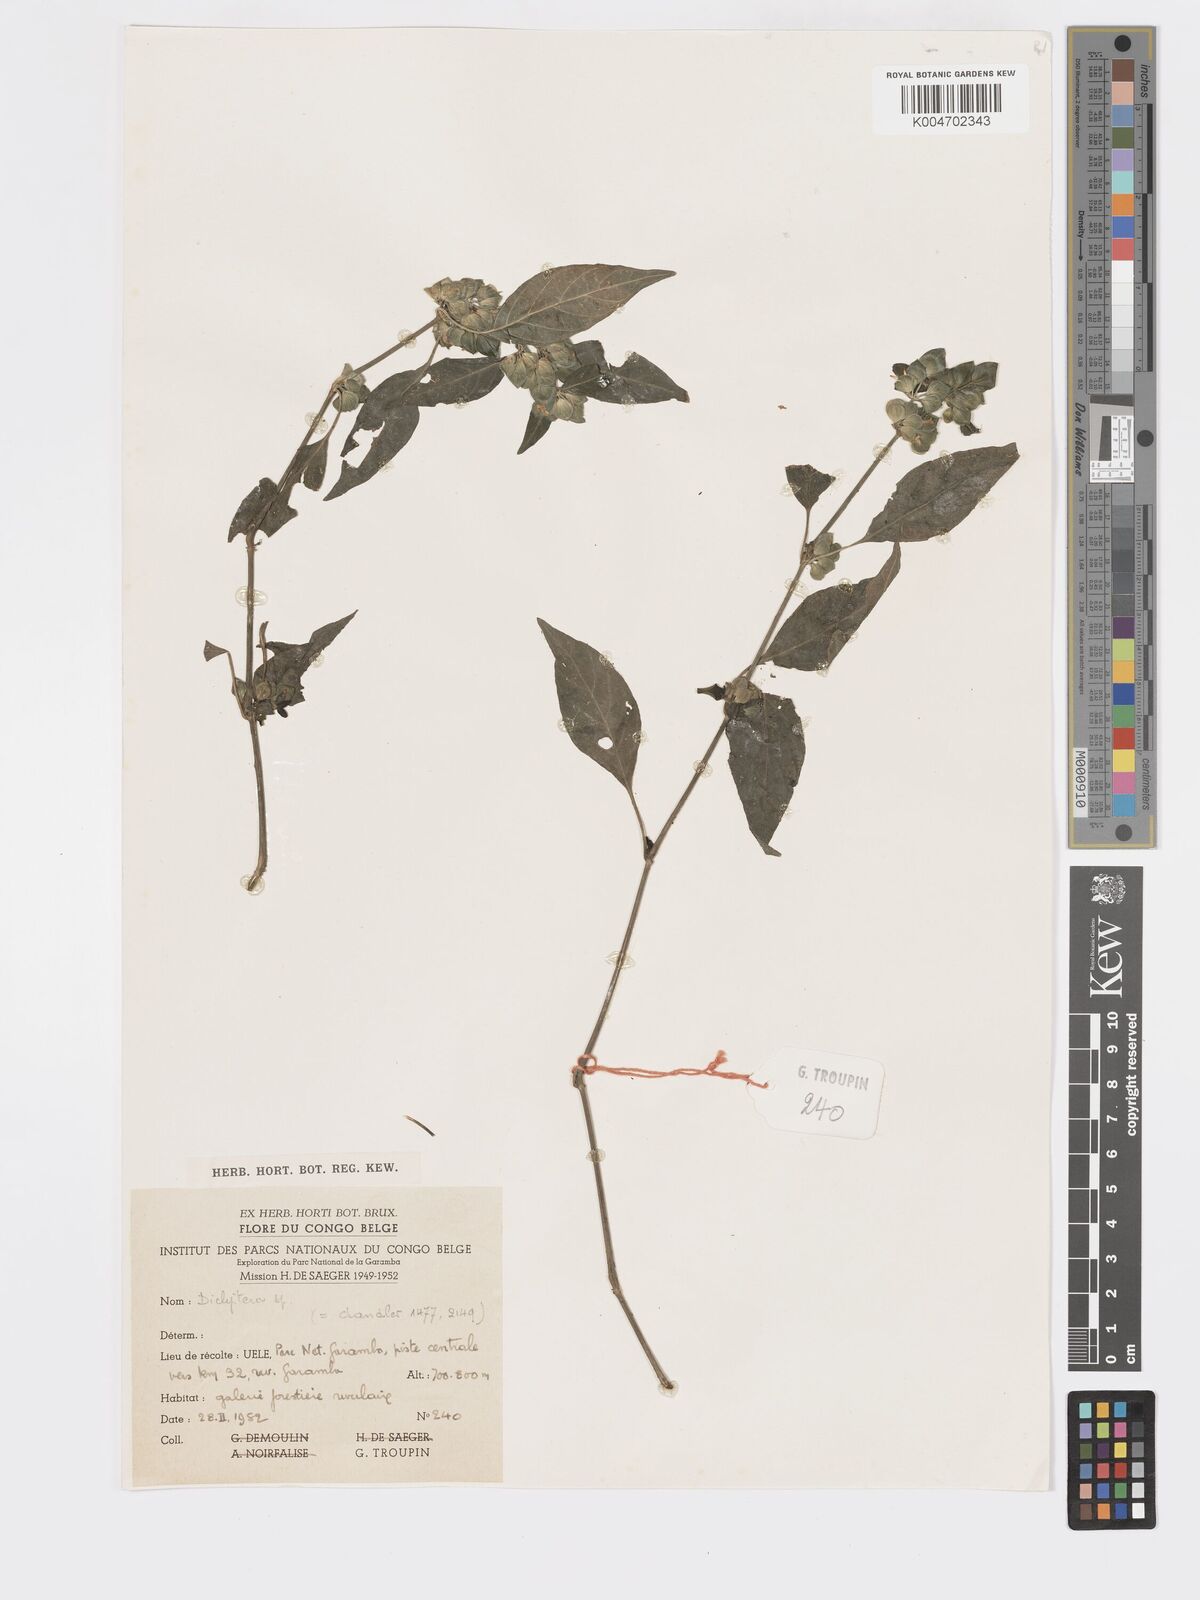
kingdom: Plantae
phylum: Tracheophyta
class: Magnoliopsida
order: Lamiales
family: Acanthaceae
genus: Dicliptera
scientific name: Dicliptera elliotii
